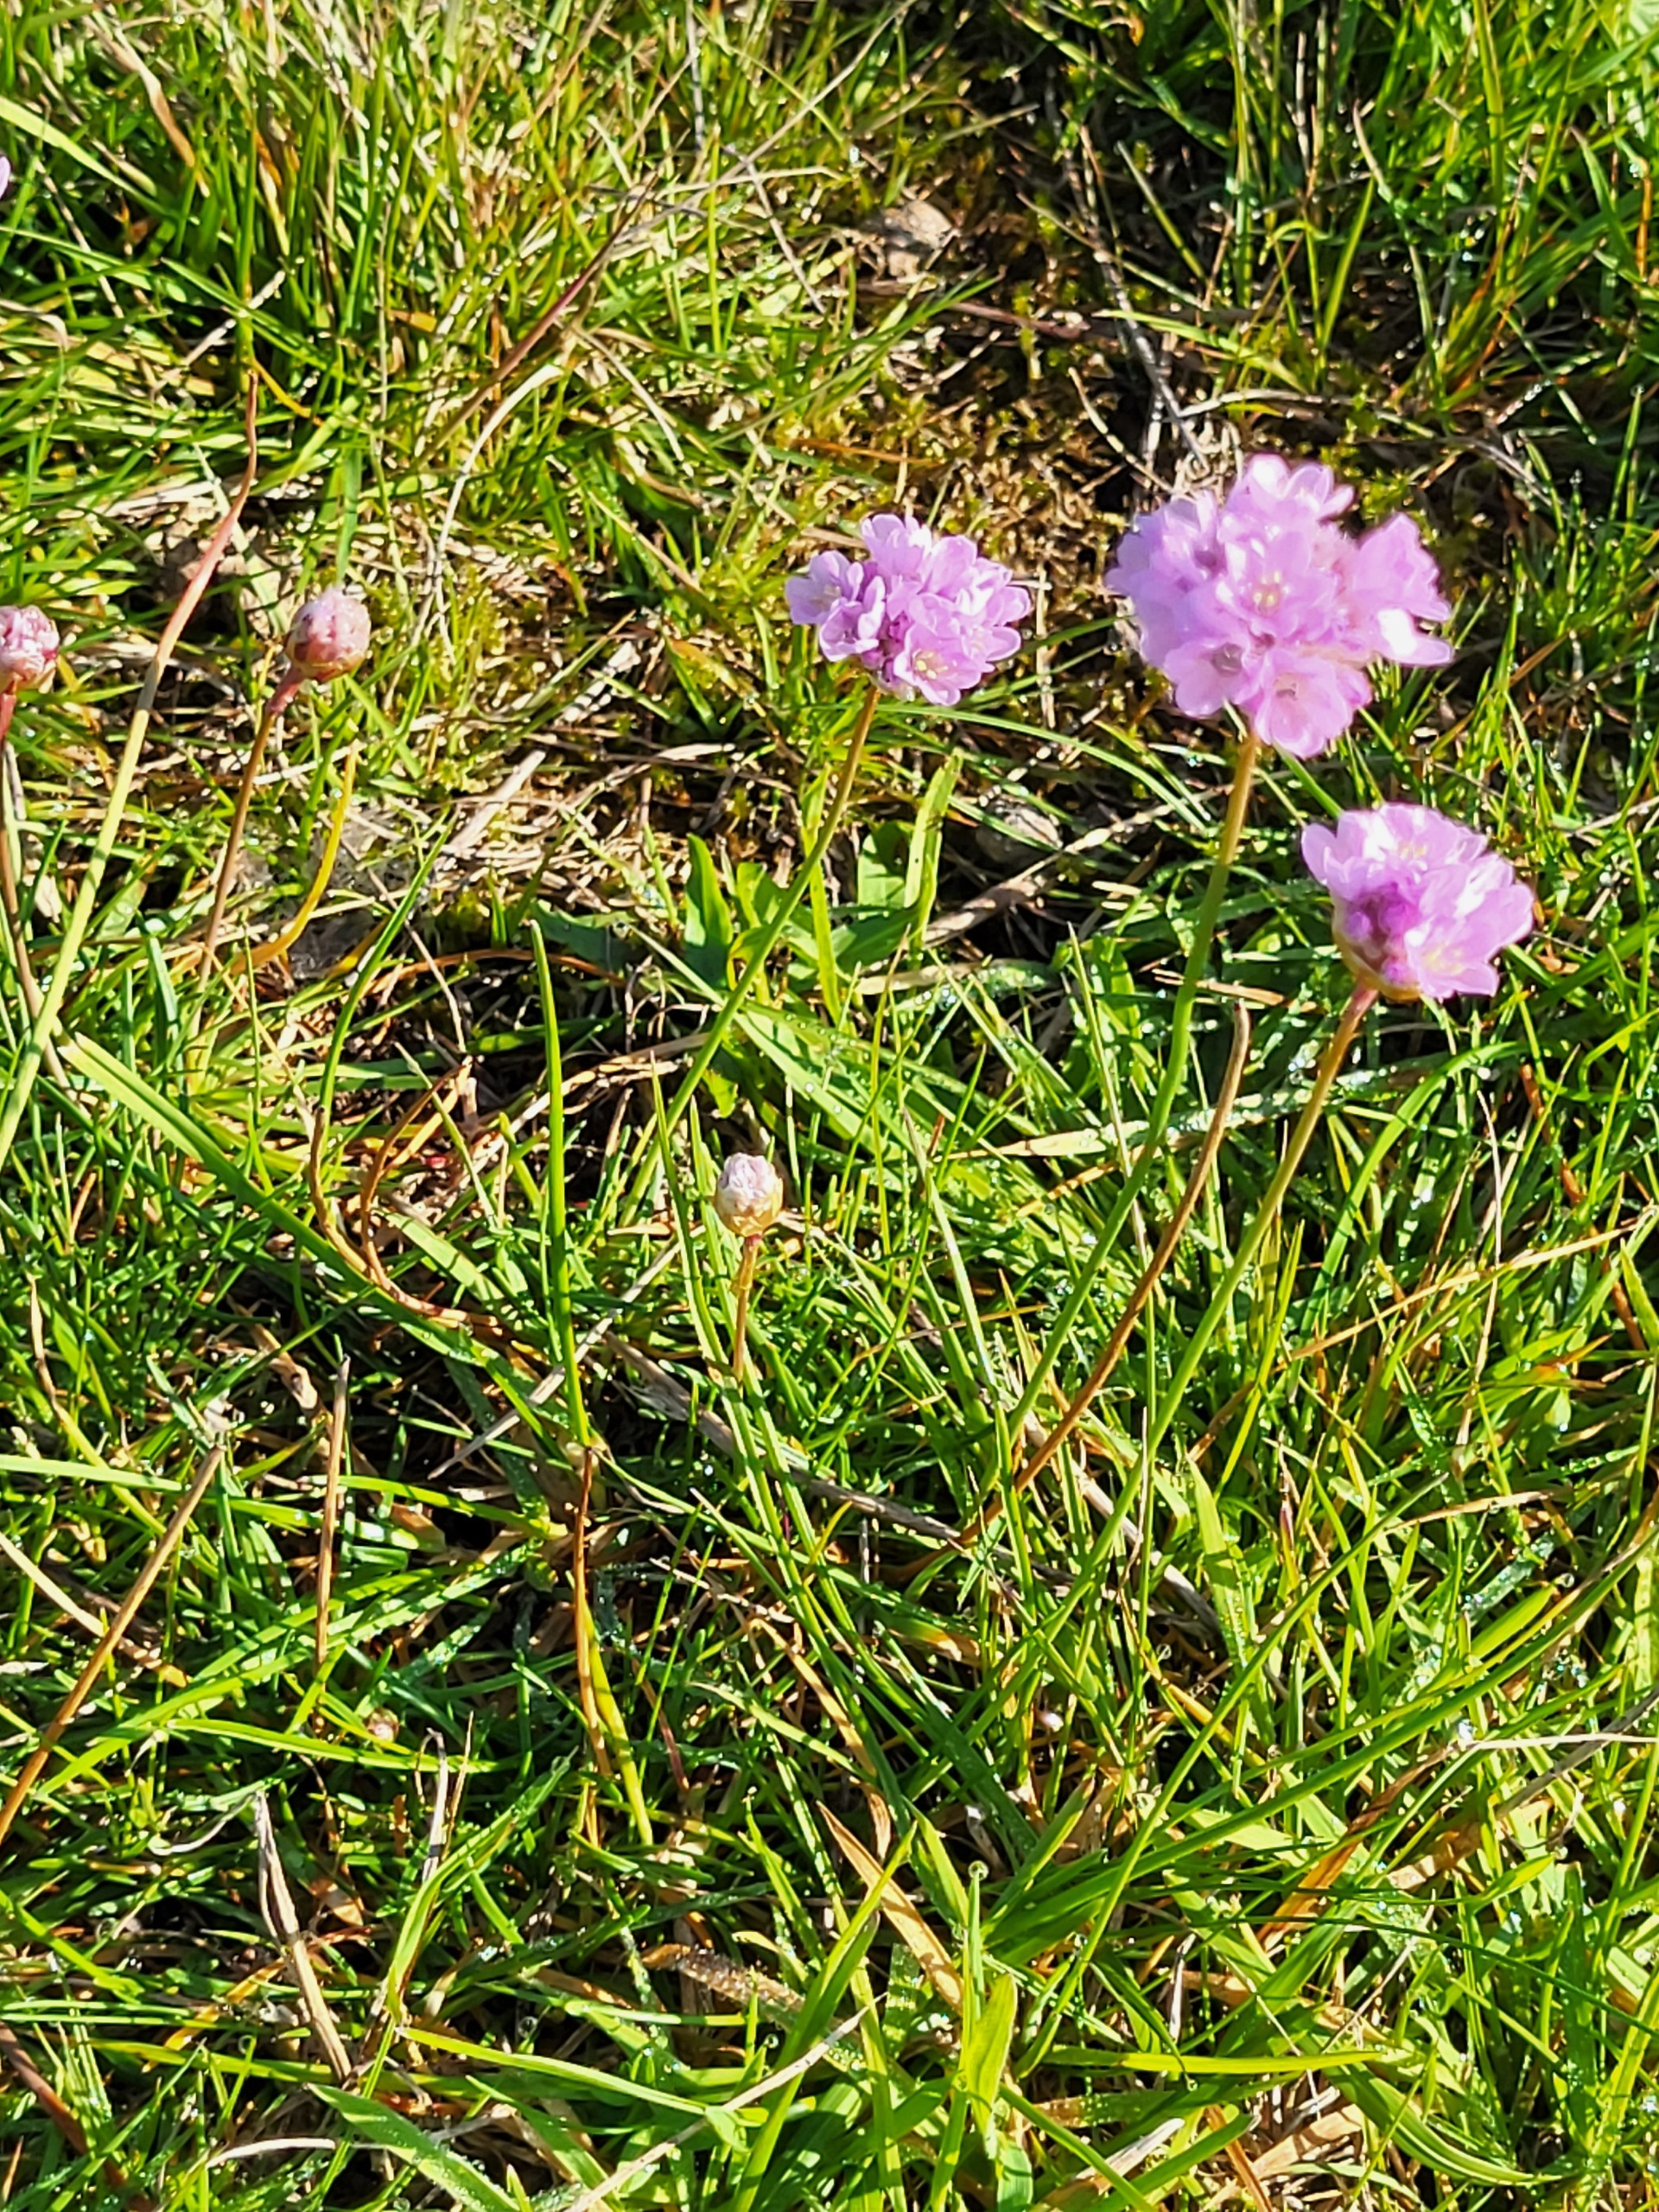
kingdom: Plantae
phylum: Tracheophyta
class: Magnoliopsida
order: Caryophyllales
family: Plumbaginaceae
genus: Armeria
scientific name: Armeria maritima
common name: Engelskgræs
